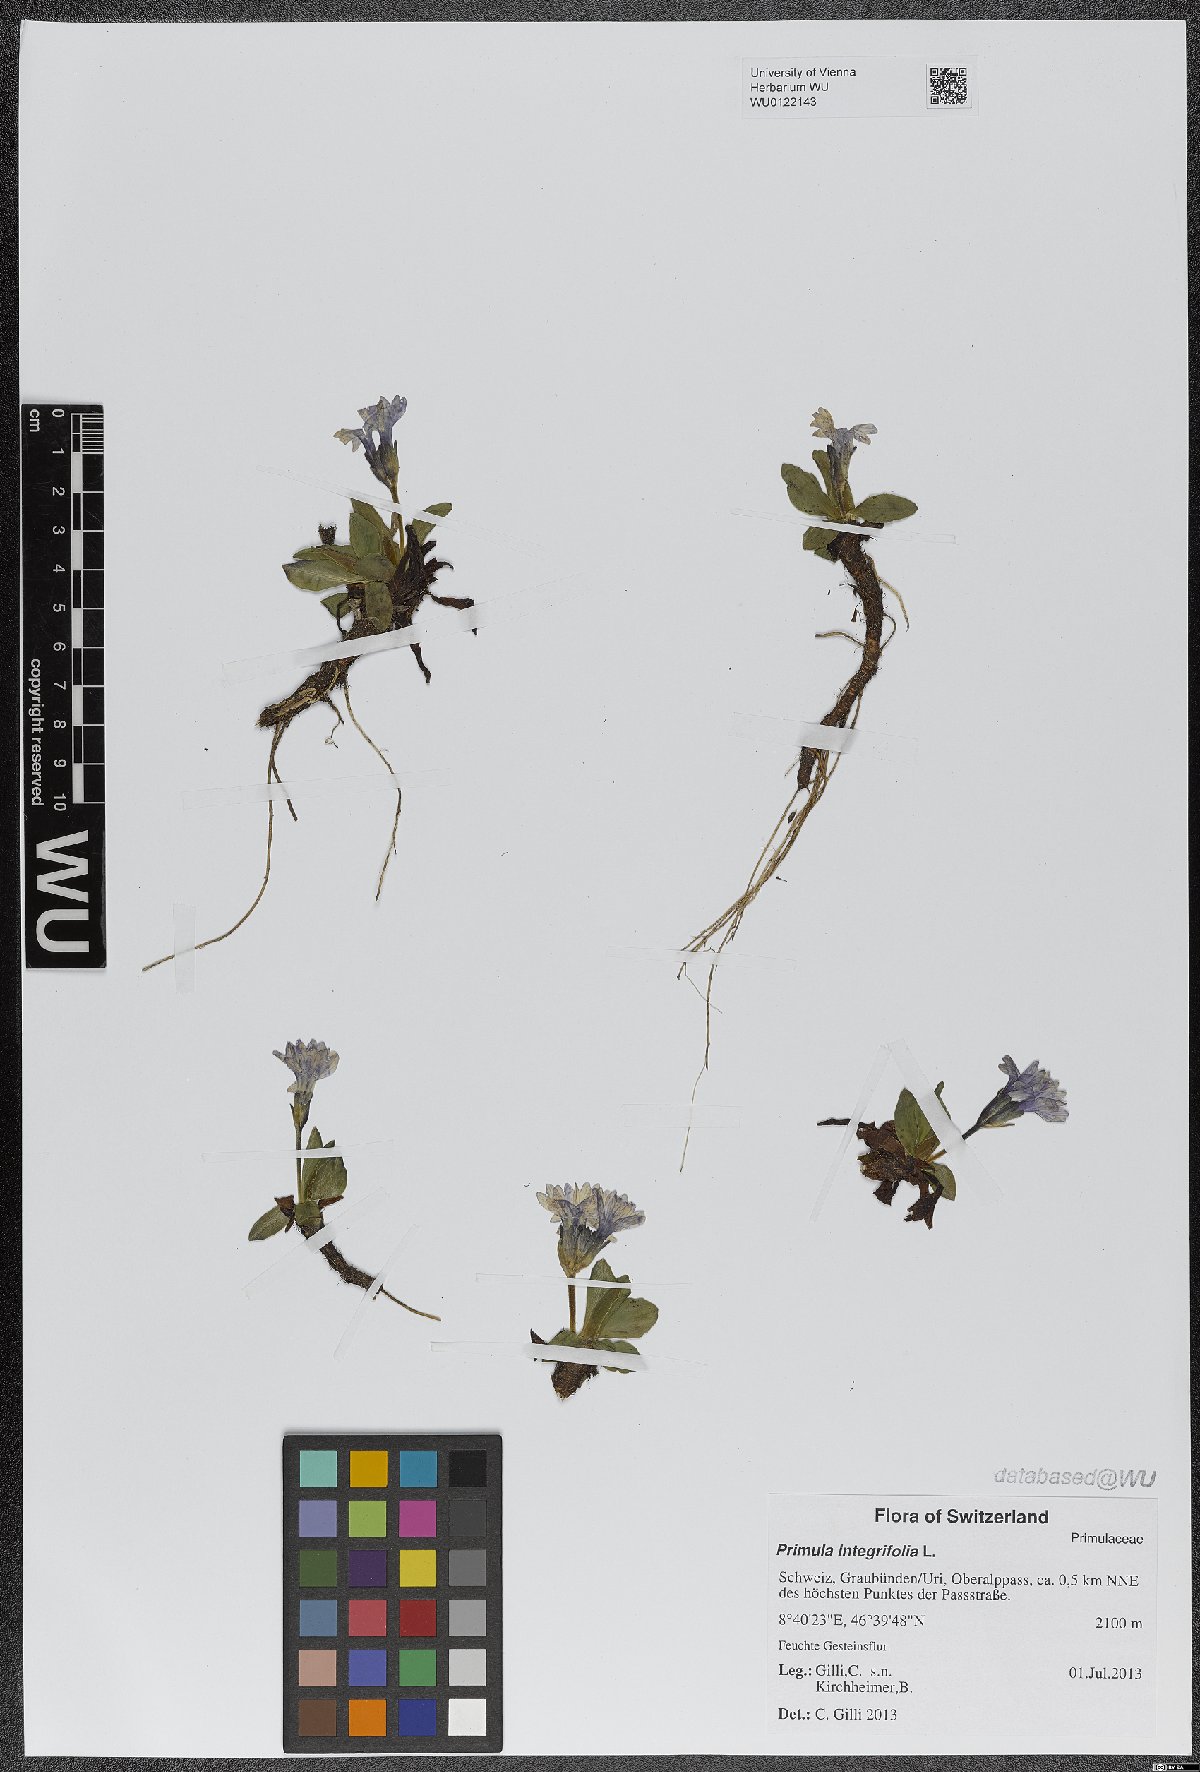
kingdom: Plantae
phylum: Tracheophyta
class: Magnoliopsida
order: Ericales
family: Primulaceae
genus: Primula
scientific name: Primula integrifolia
